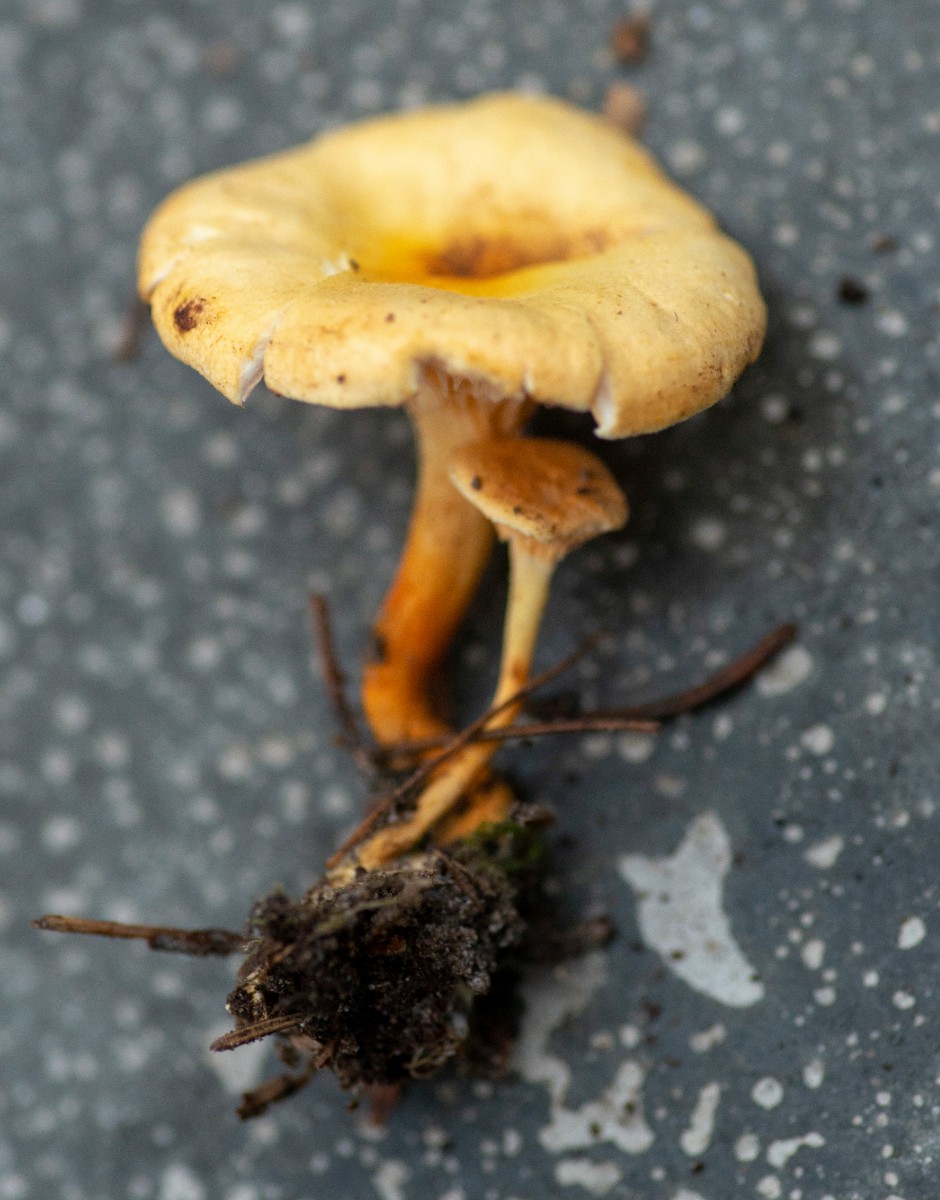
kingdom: Fungi
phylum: Basidiomycota
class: Agaricomycetes
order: Boletales
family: Hygrophoropsidaceae
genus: Hygrophoropsis
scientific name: Hygrophoropsis aurantiaca
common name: almindelig orangekantarel
